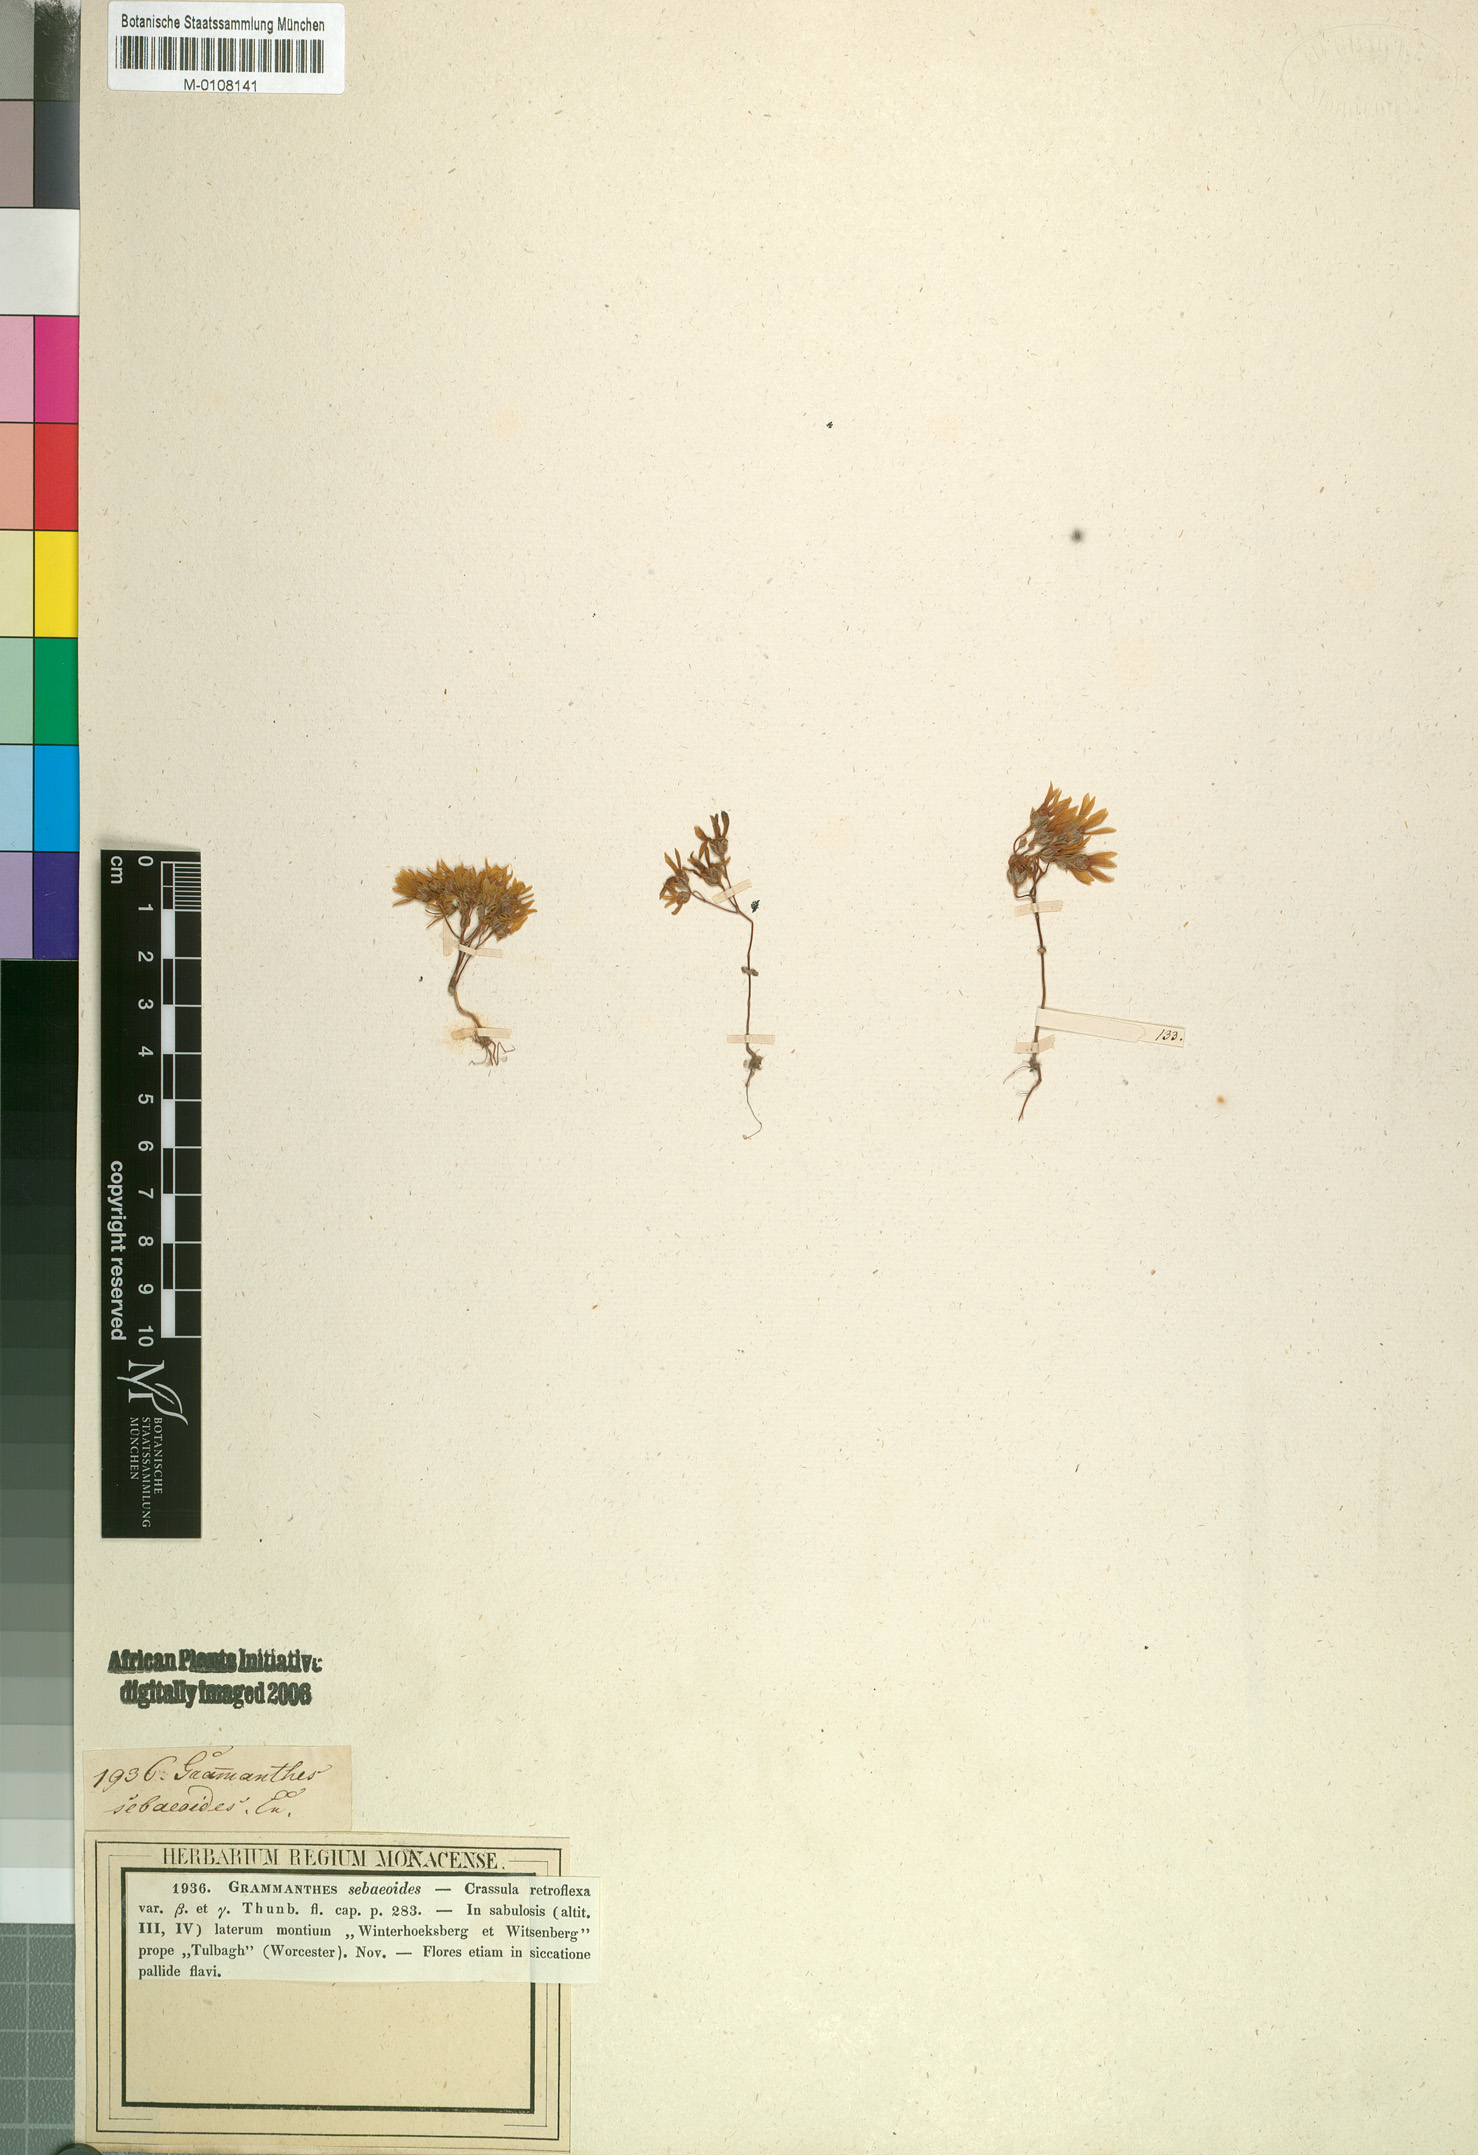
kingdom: Plantae
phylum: Tracheophyta
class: Magnoliopsida
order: Saxifragales
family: Crassulaceae
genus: Crassula
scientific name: Crassula sebaeoides
